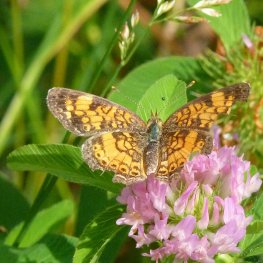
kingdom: Animalia
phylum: Arthropoda
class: Insecta
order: Lepidoptera
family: Nymphalidae
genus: Phyciodes
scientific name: Phyciodes tharos
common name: Northern Crescent
